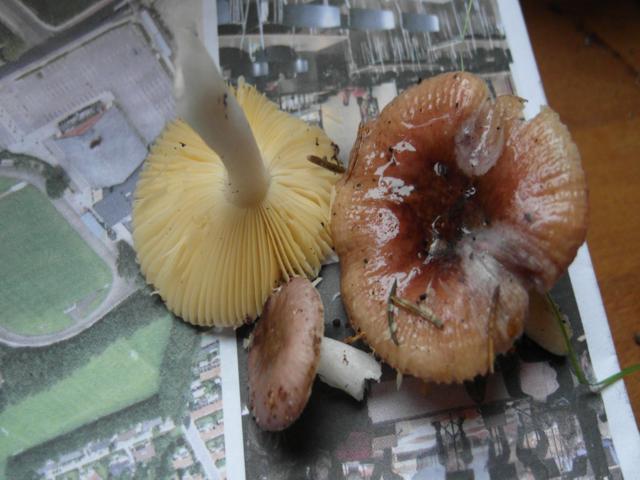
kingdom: Fungi
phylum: Basidiomycota
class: Agaricomycetes
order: Russulales
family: Russulaceae
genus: Russula
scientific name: Russula cessans
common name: fyrre-skørhat
